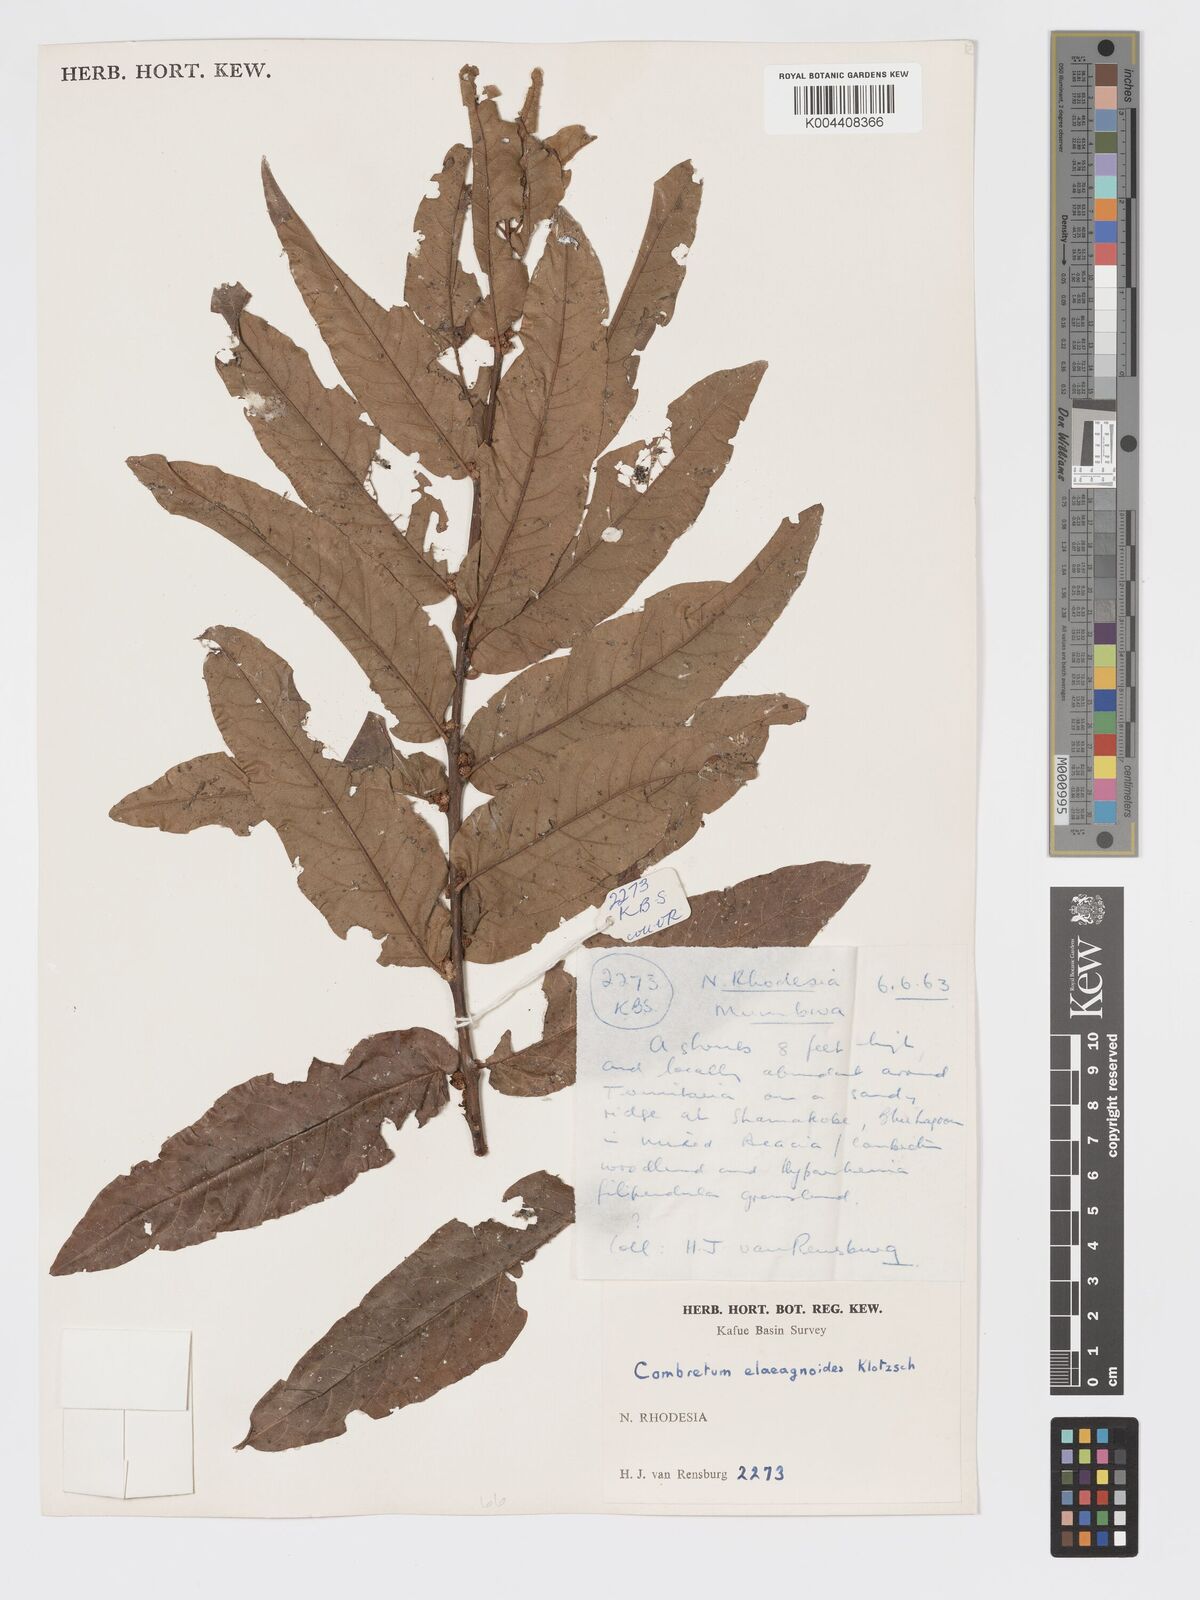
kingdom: Plantae
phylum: Tracheophyta
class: Magnoliopsida
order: Myrtales
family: Combretaceae
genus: Combretum
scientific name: Combretum elaeagnoides
